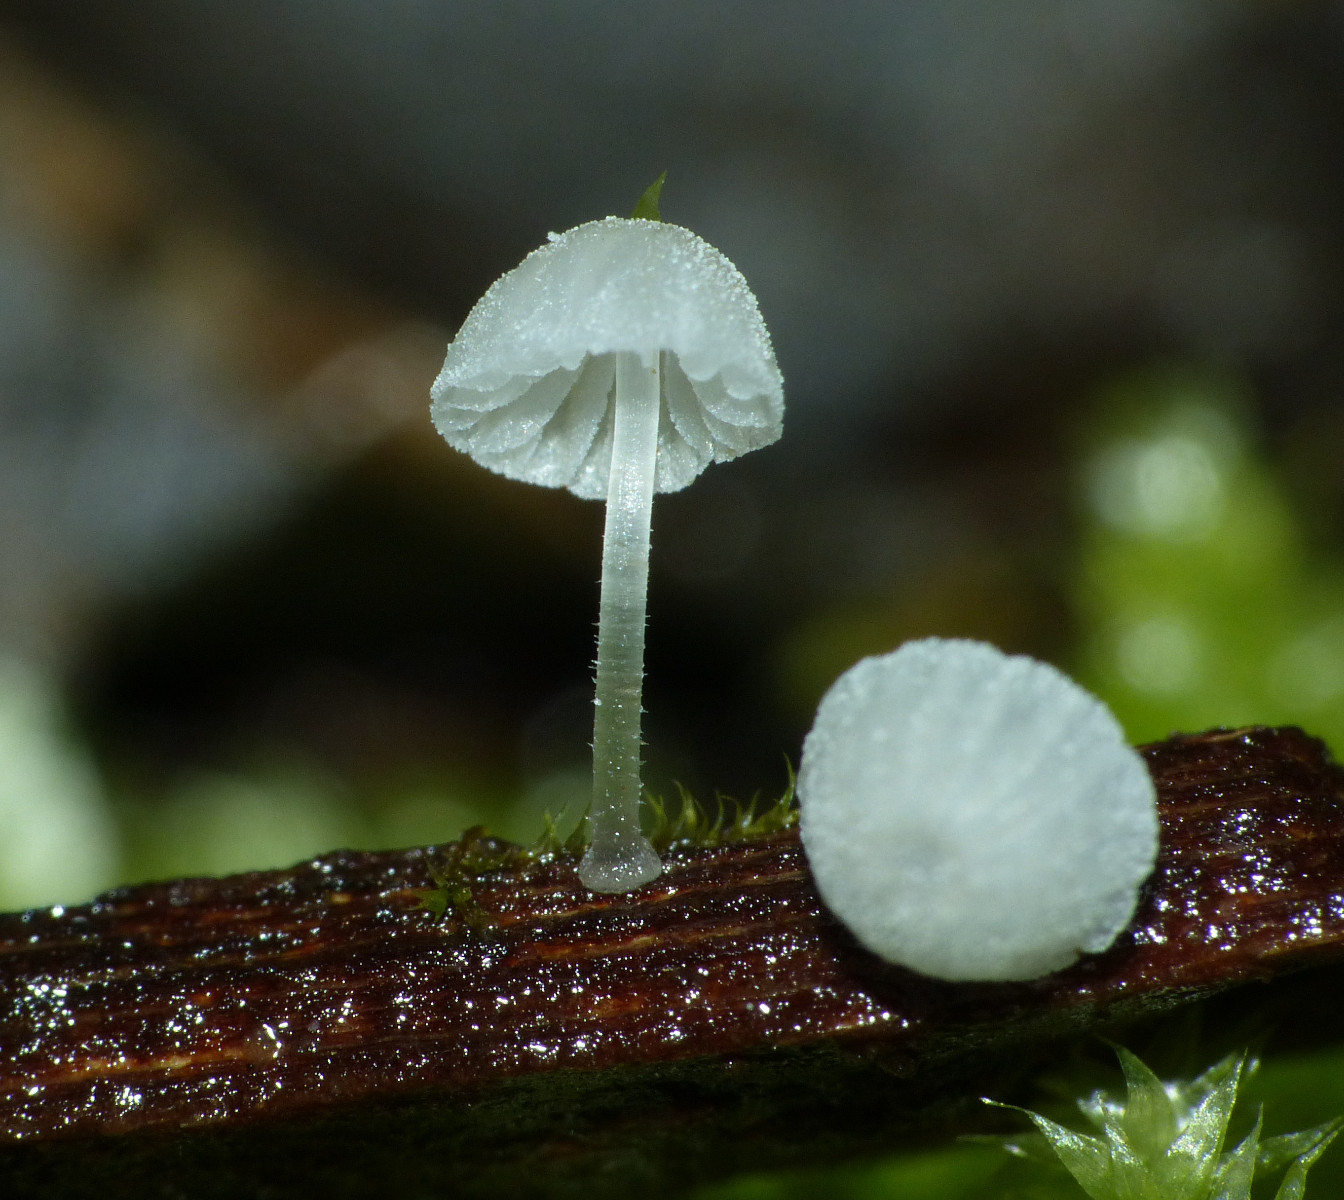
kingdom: Fungi
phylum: Basidiomycota
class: Agaricomycetes
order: Agaricales
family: Mycenaceae
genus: Mycena
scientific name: Mycena tenerrima
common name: pudret huesvamp
